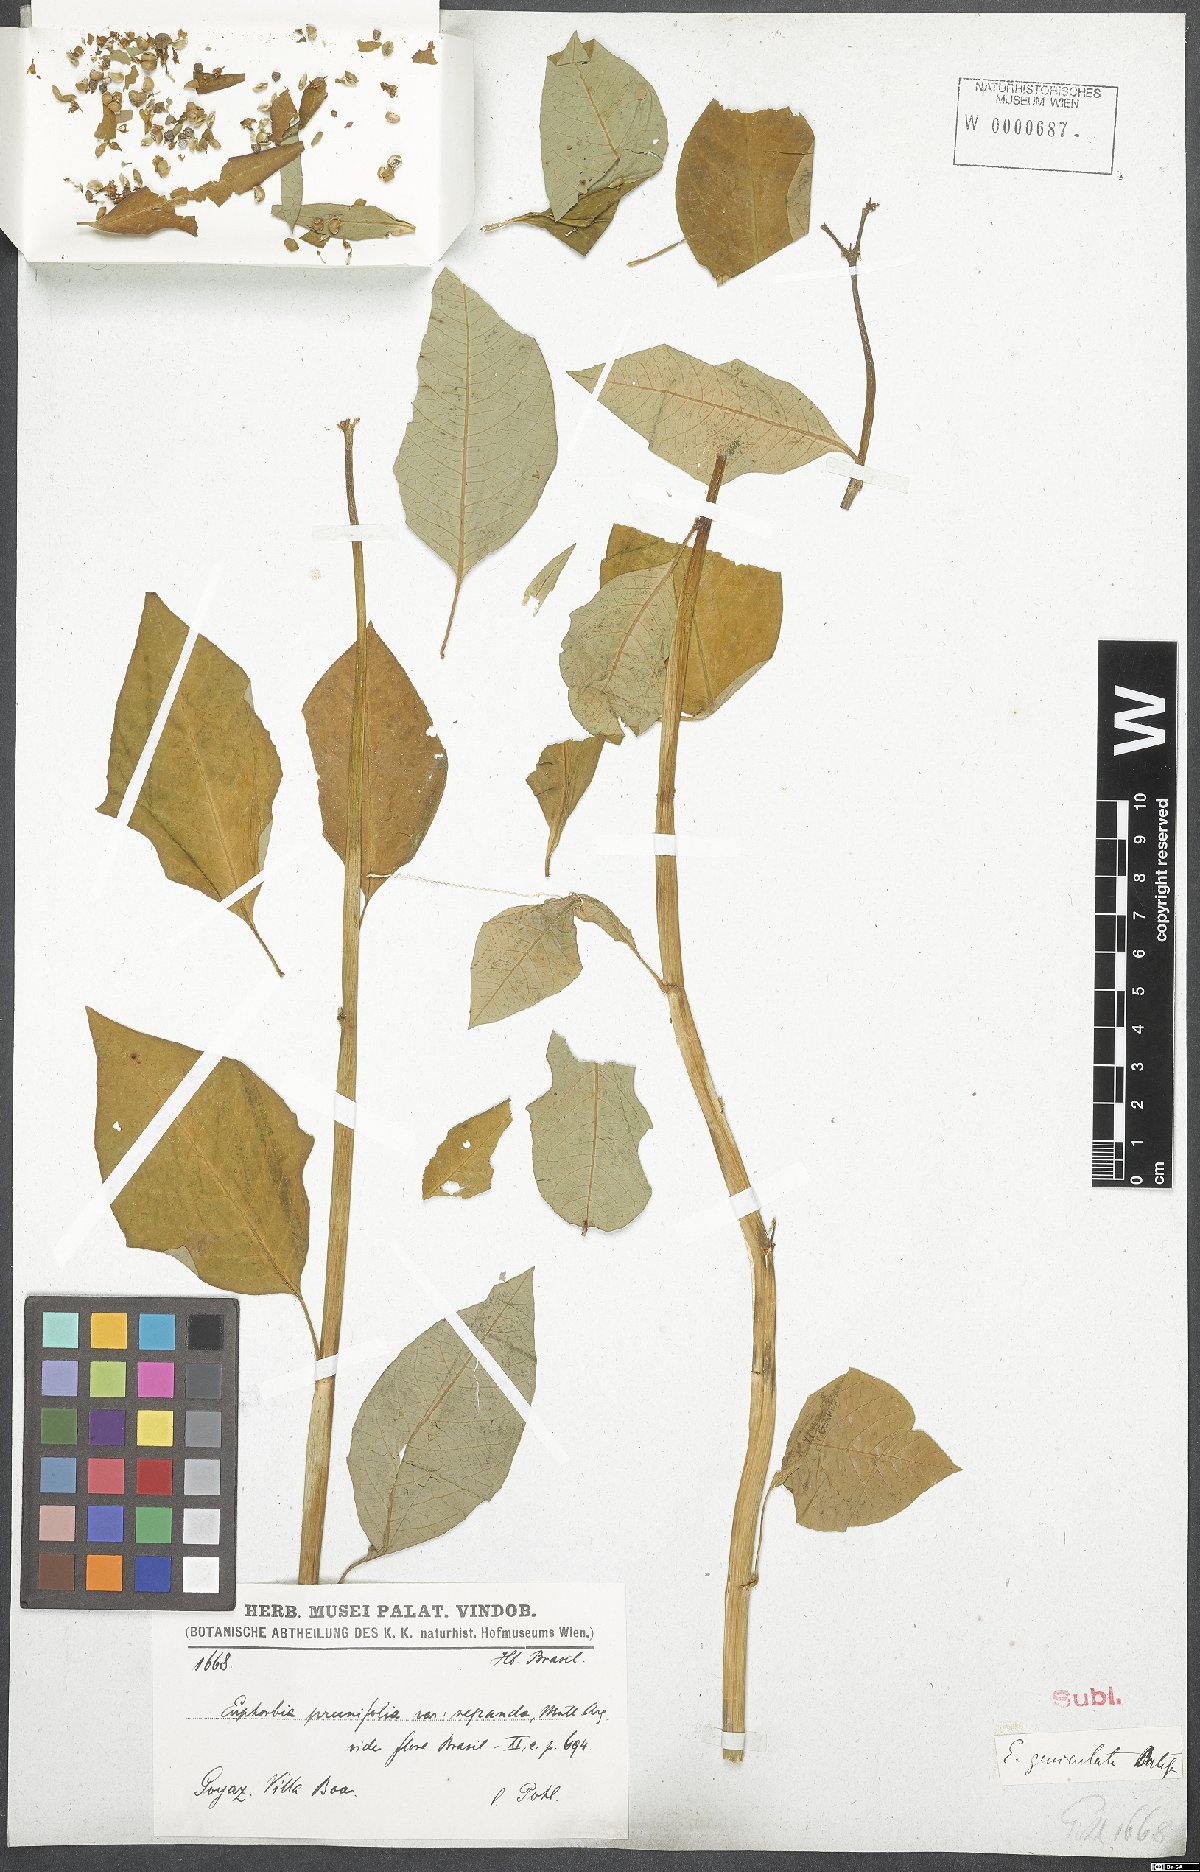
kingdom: Plantae
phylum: Tracheophyta
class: Magnoliopsida
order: Malpighiales
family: Euphorbiaceae
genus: Euphorbia
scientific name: Euphorbia heterophylla
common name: Mexican fireplant
